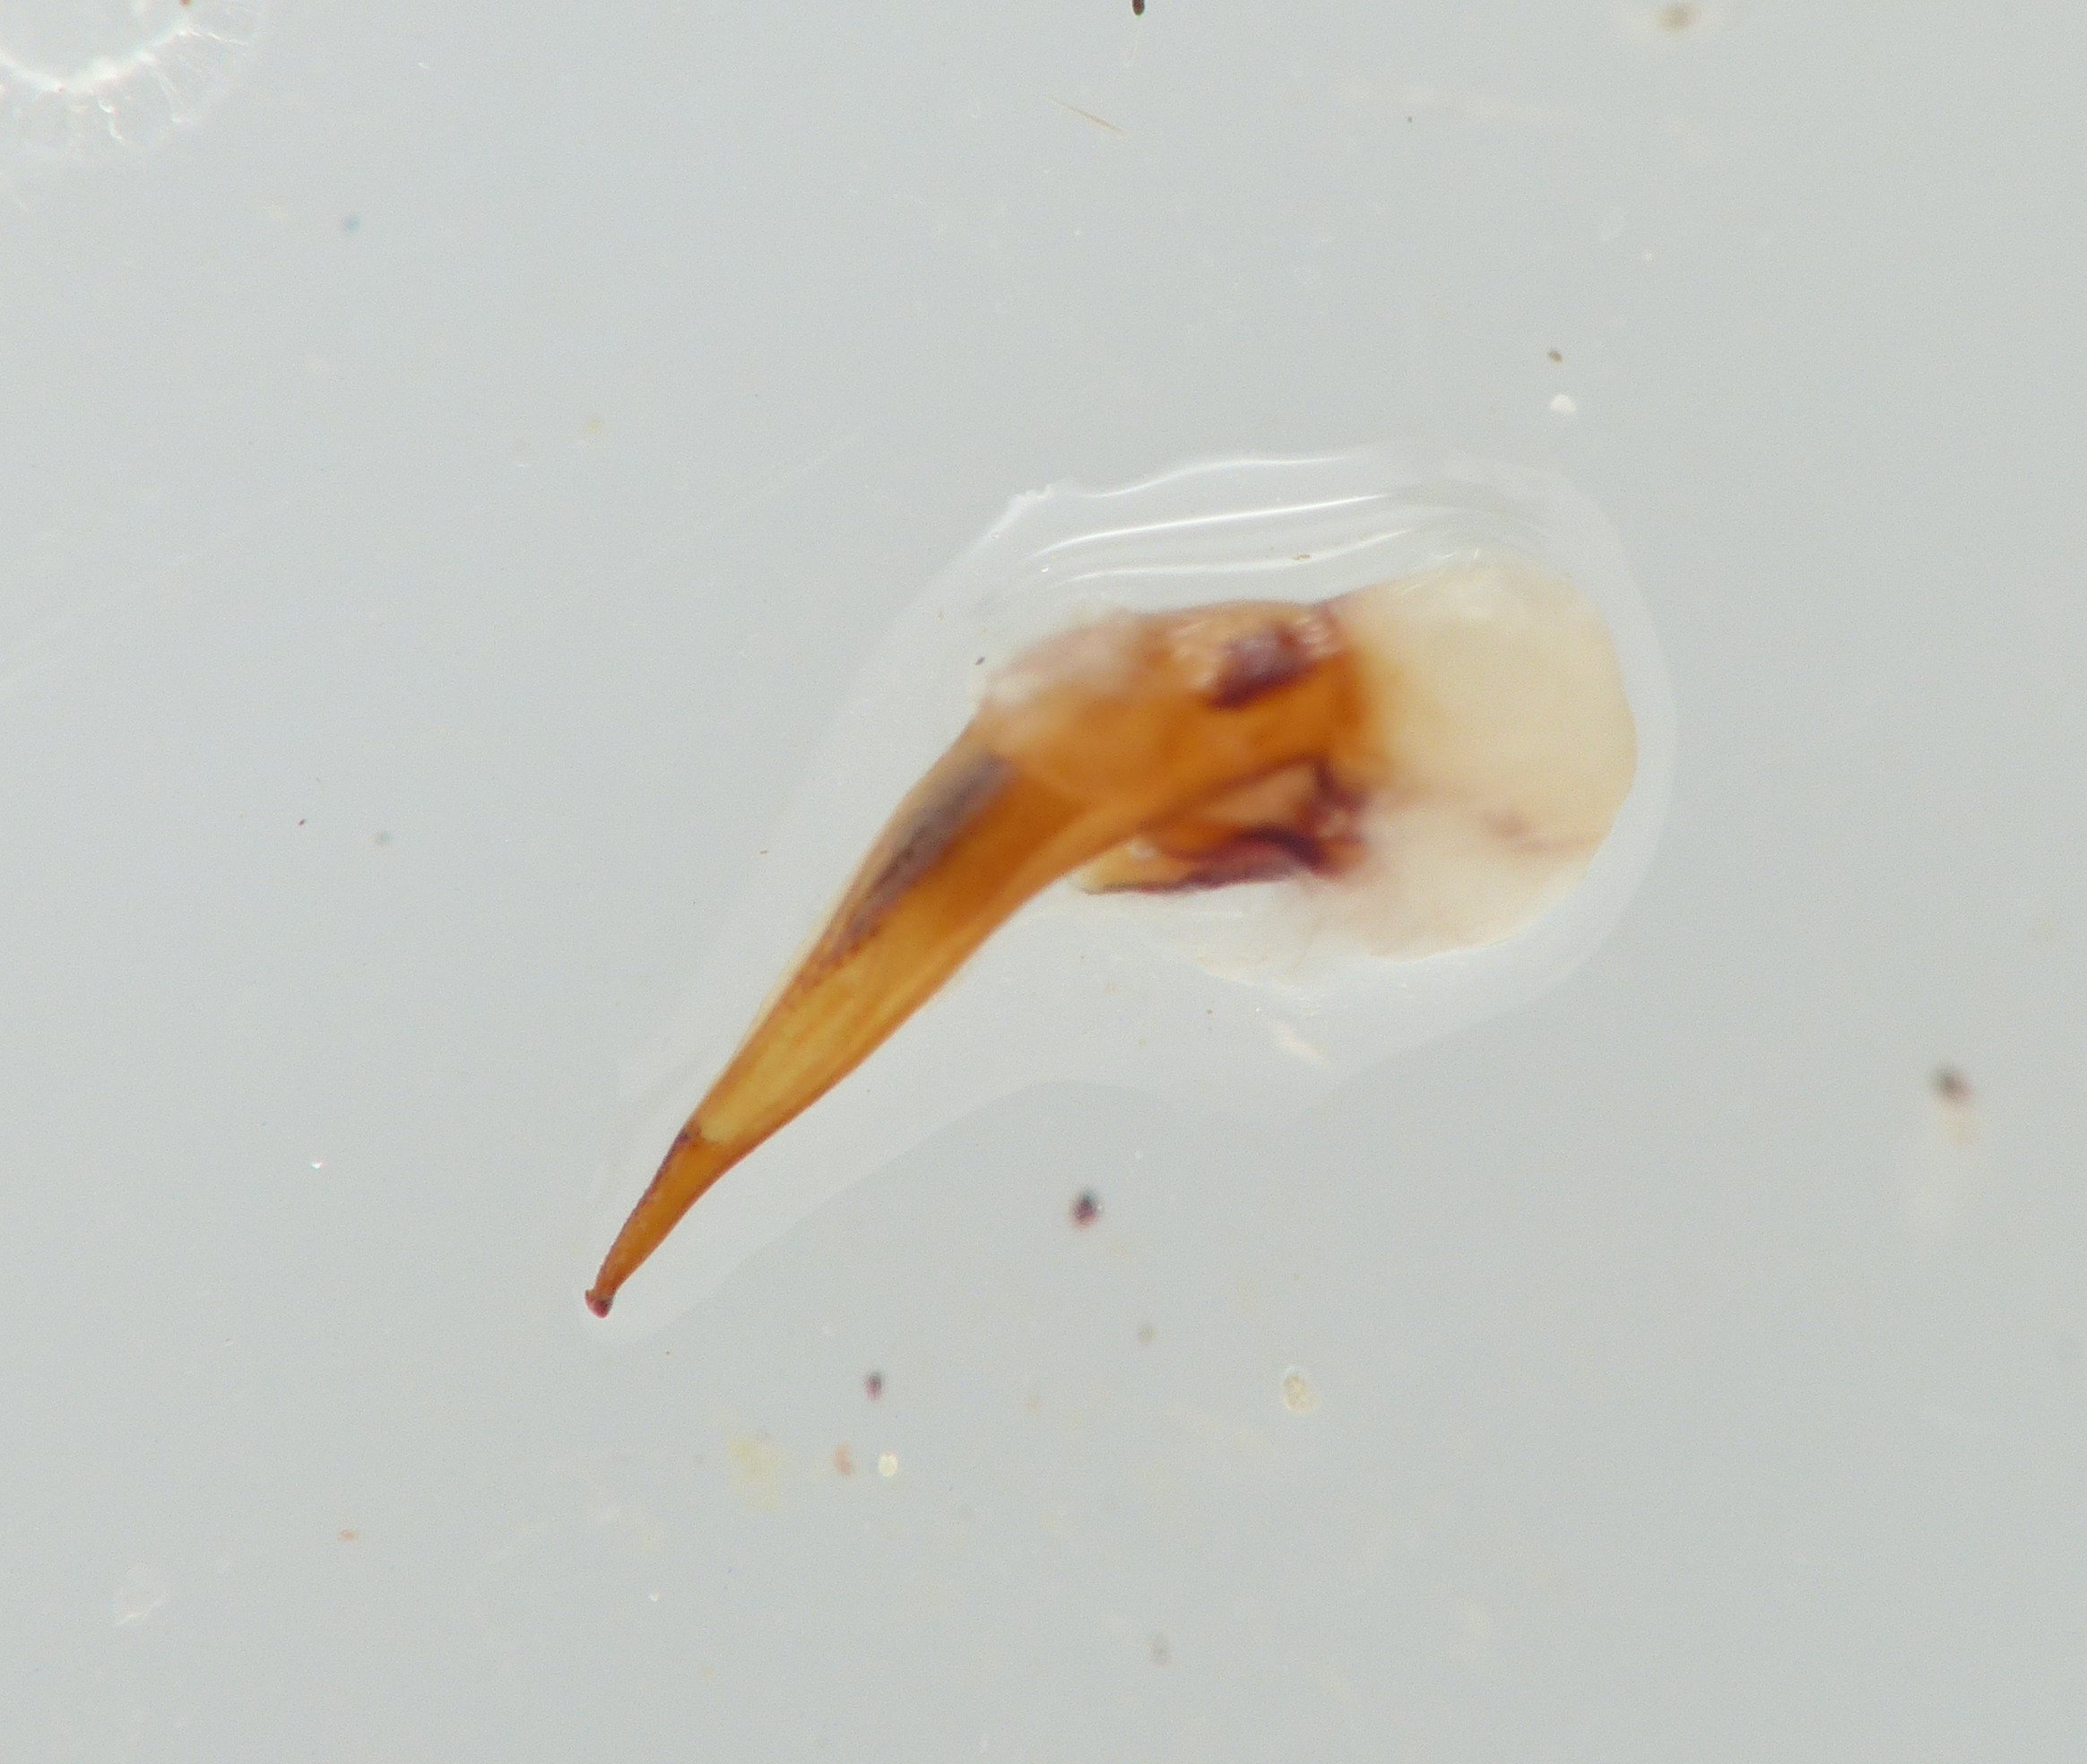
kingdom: Animalia
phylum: Arthropoda
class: Insecta
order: Coleoptera
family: Carabidae
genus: Ophonus
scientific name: Ophonus puncticeps
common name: Gulerodskalkløber
